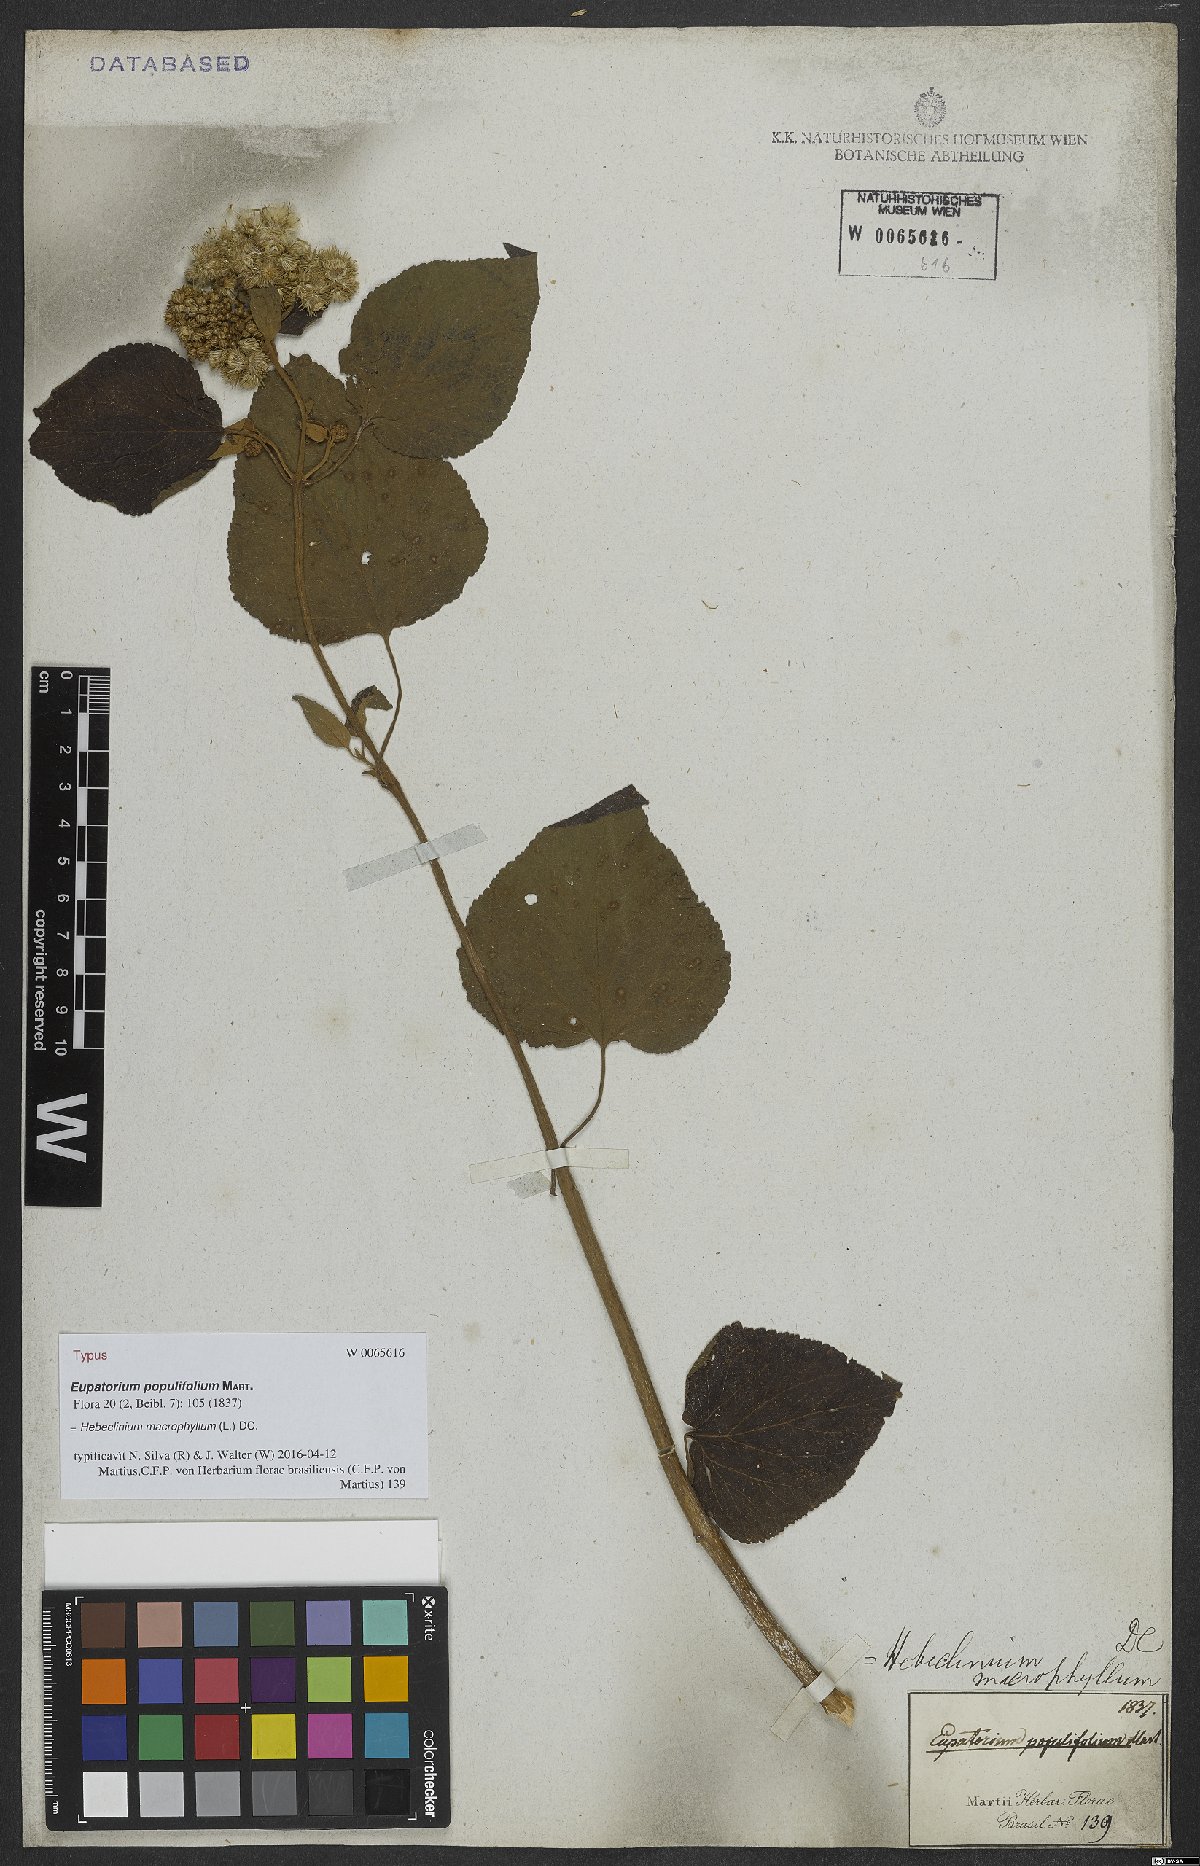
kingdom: Plantae
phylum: Tracheophyta
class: Magnoliopsida
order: Asterales
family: Asteraceae
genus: Hebeclinium
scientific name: Hebeclinium macrophyllum
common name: Largeleaf thoroughwort
